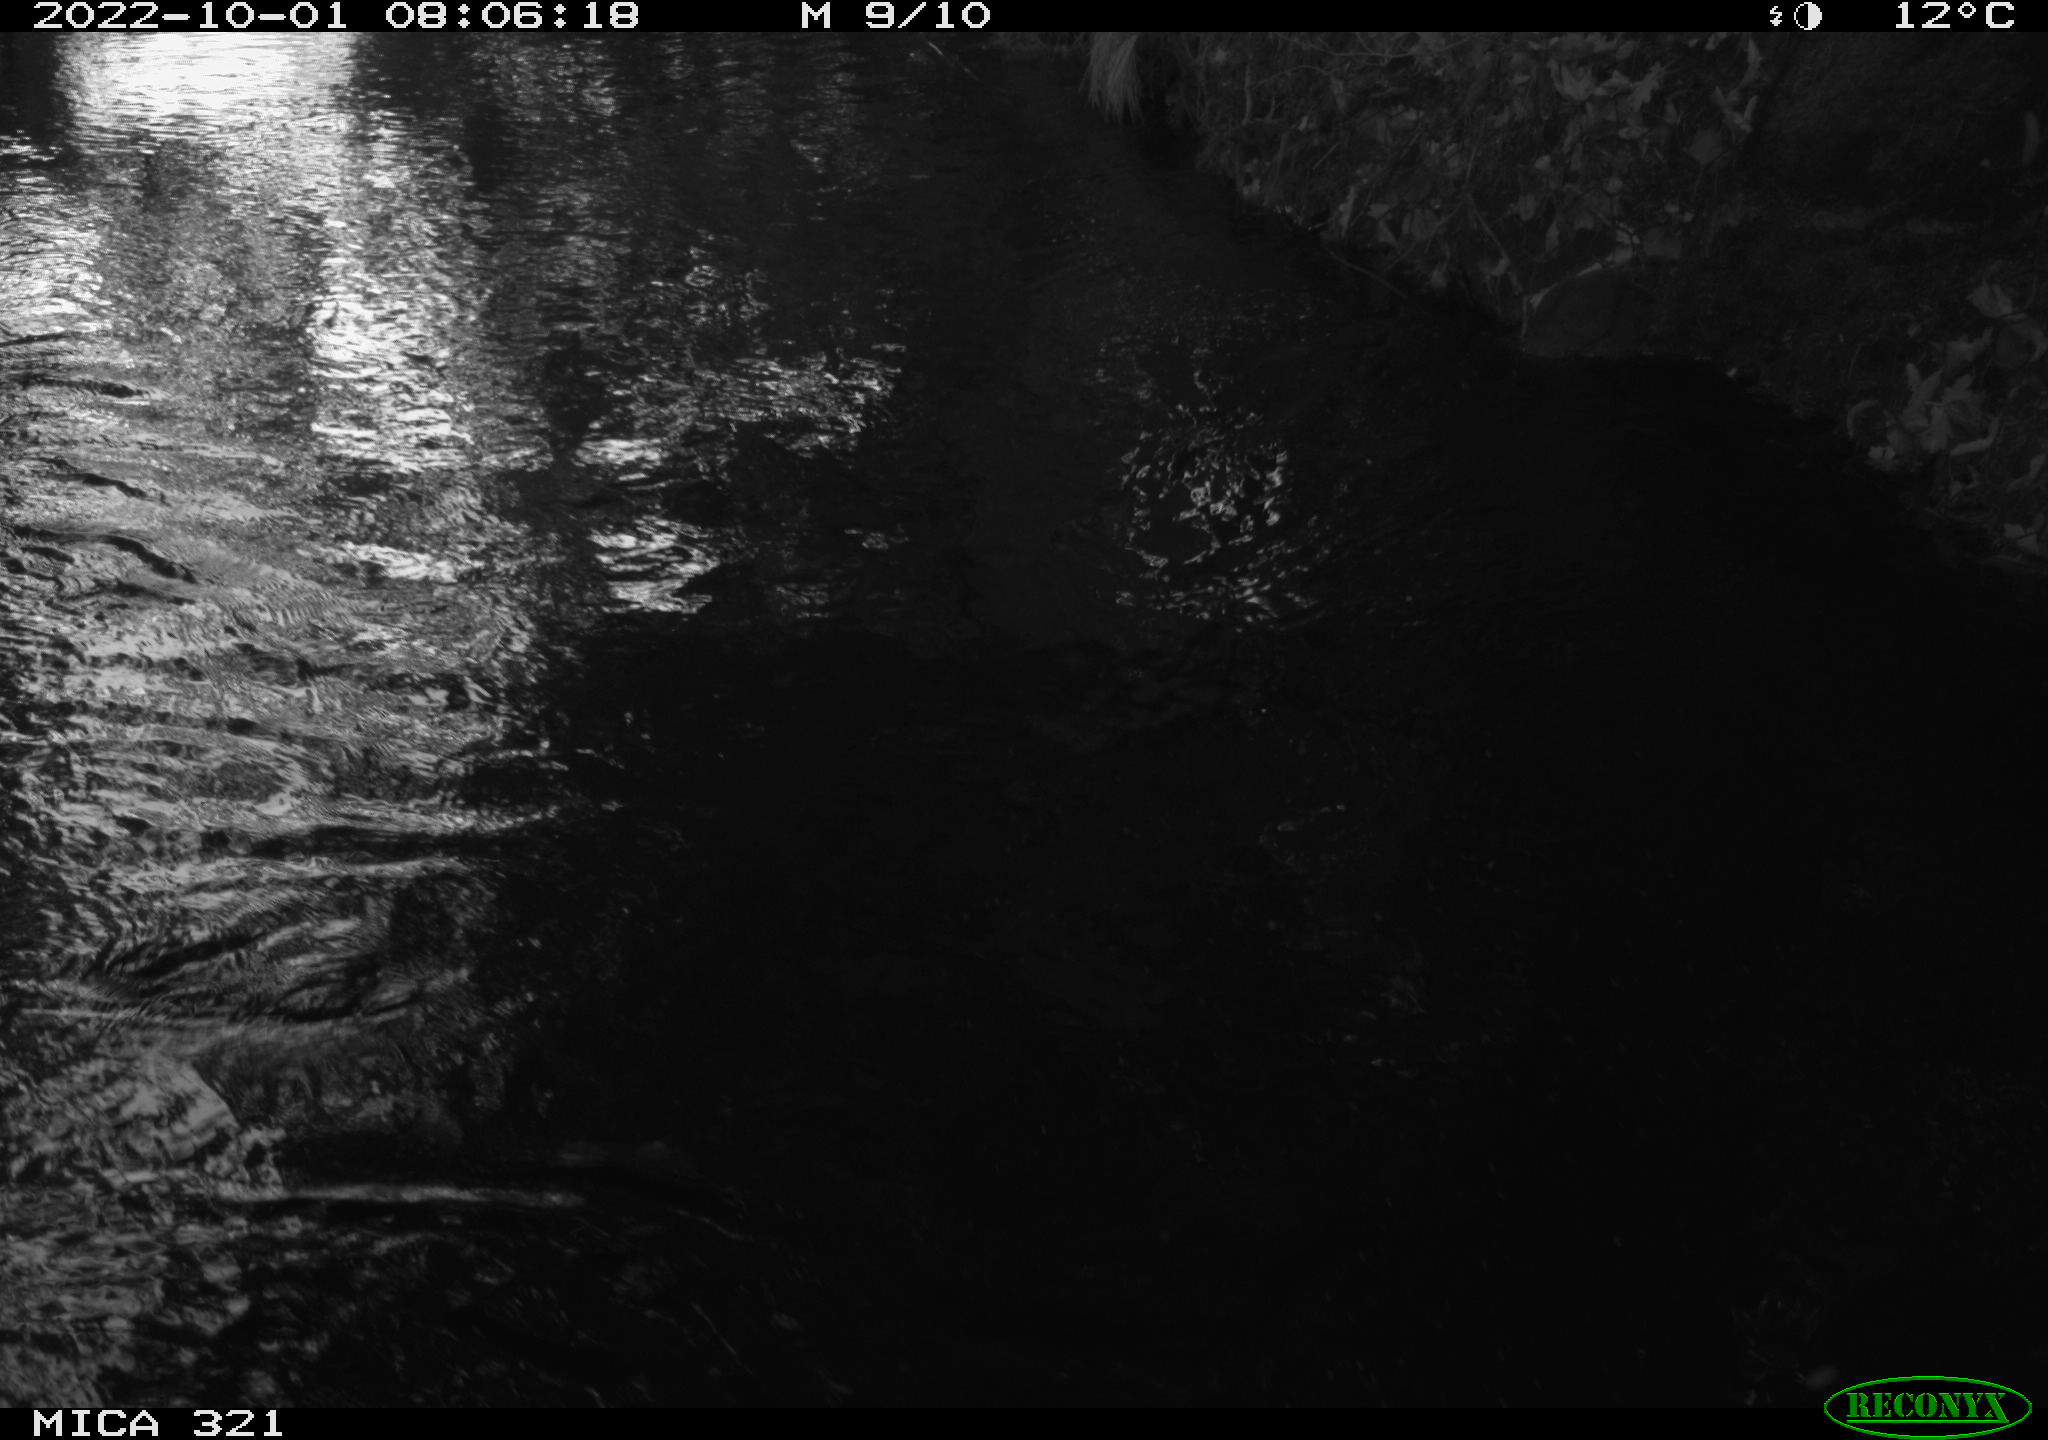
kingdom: Animalia
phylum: Chordata
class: Mammalia
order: Rodentia
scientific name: Rodentia
